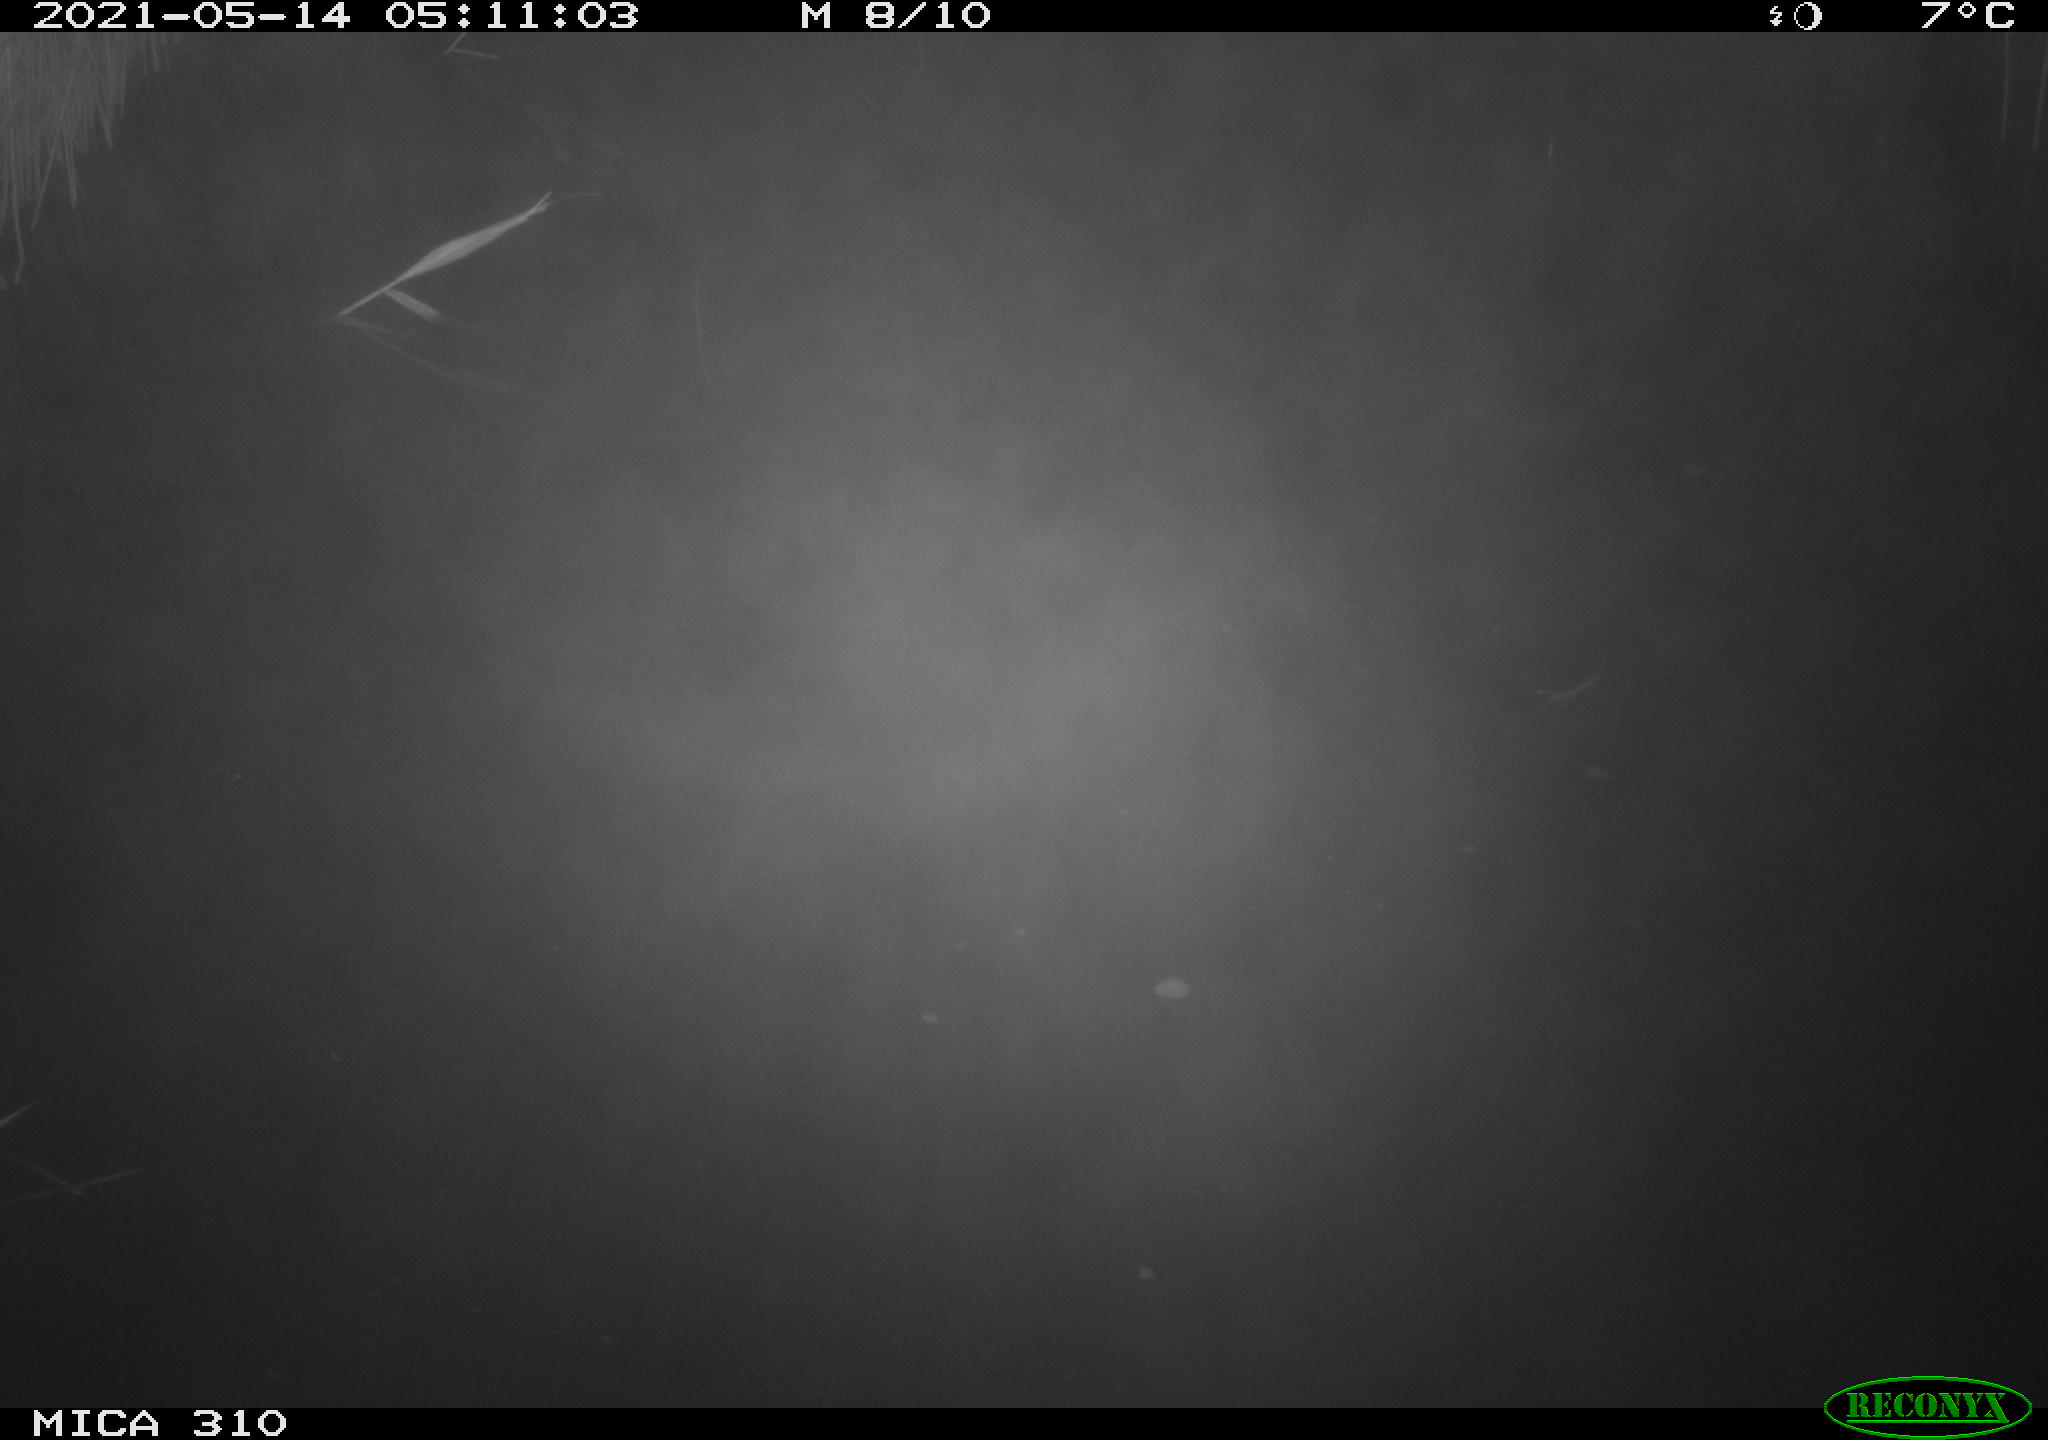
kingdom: Animalia
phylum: Chordata
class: Mammalia
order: Rodentia
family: Cricetidae
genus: Ondatra
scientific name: Ondatra zibethicus
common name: Muskrat
